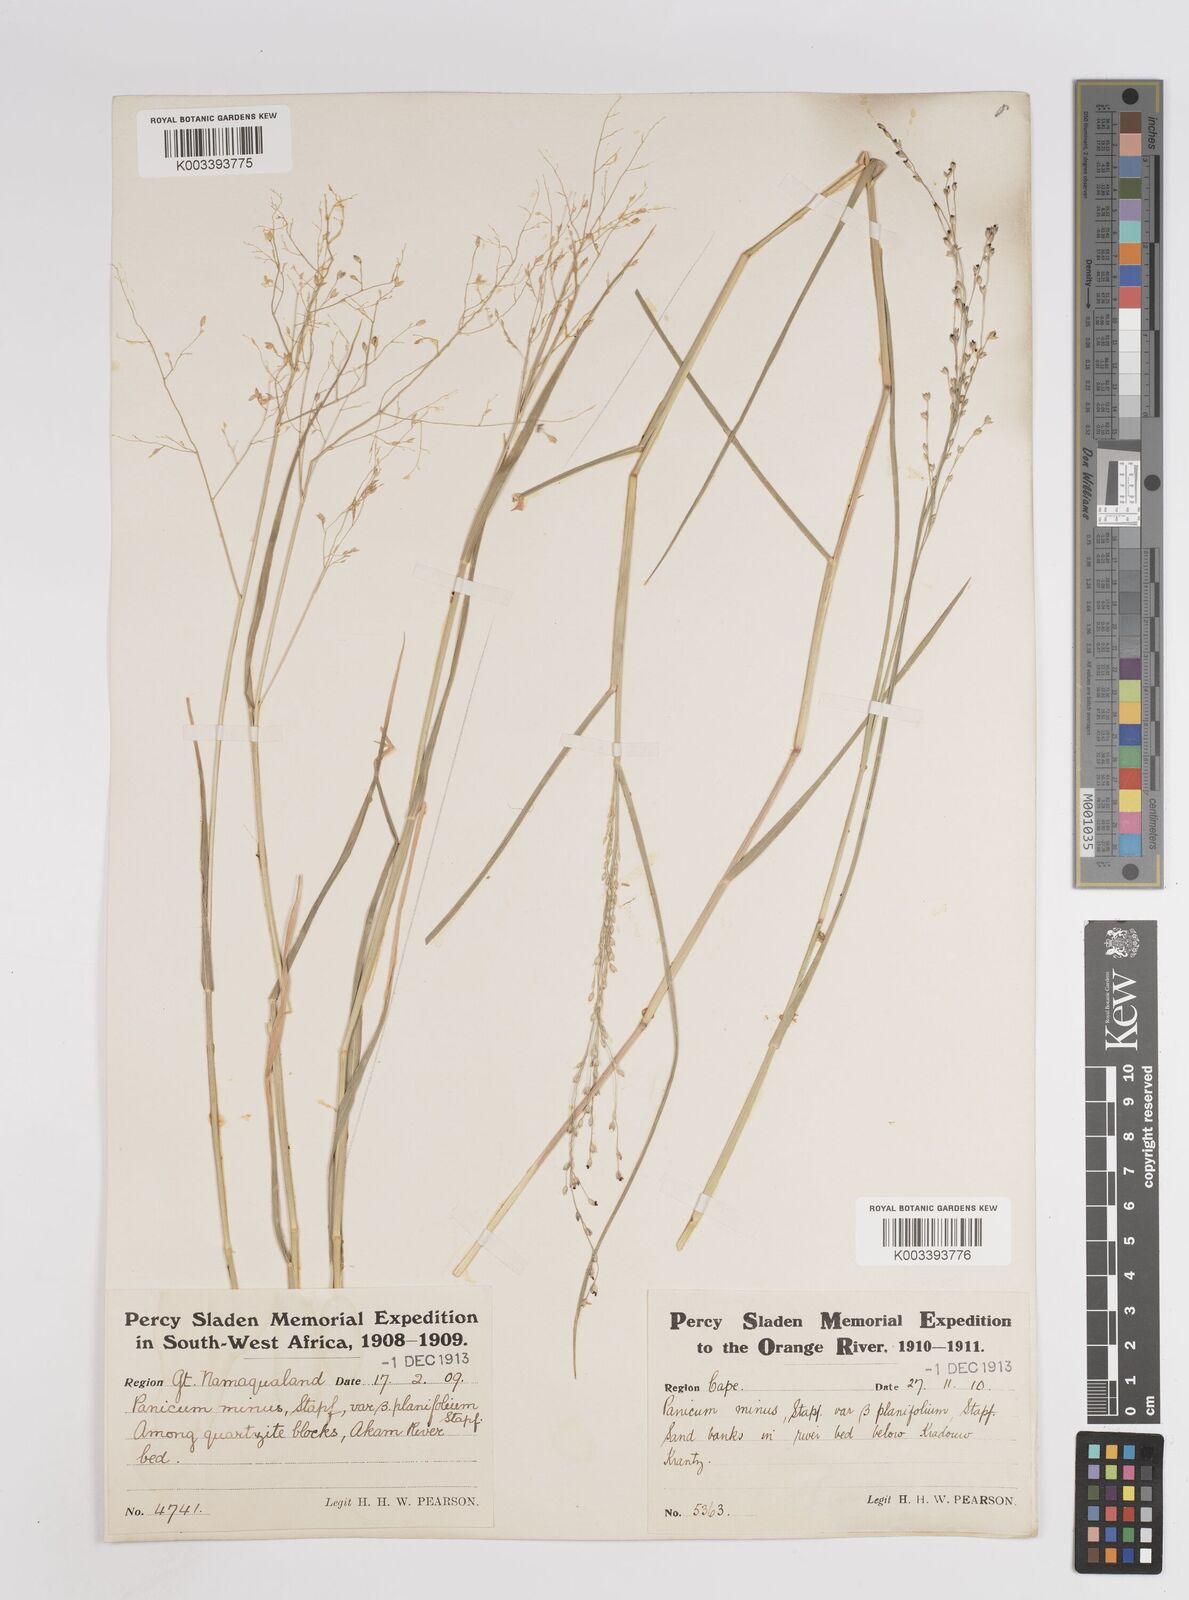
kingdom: Plantae
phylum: Tracheophyta
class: Liliopsida
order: Poales
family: Poaceae
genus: Panicum
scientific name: Panicum arbusculum
